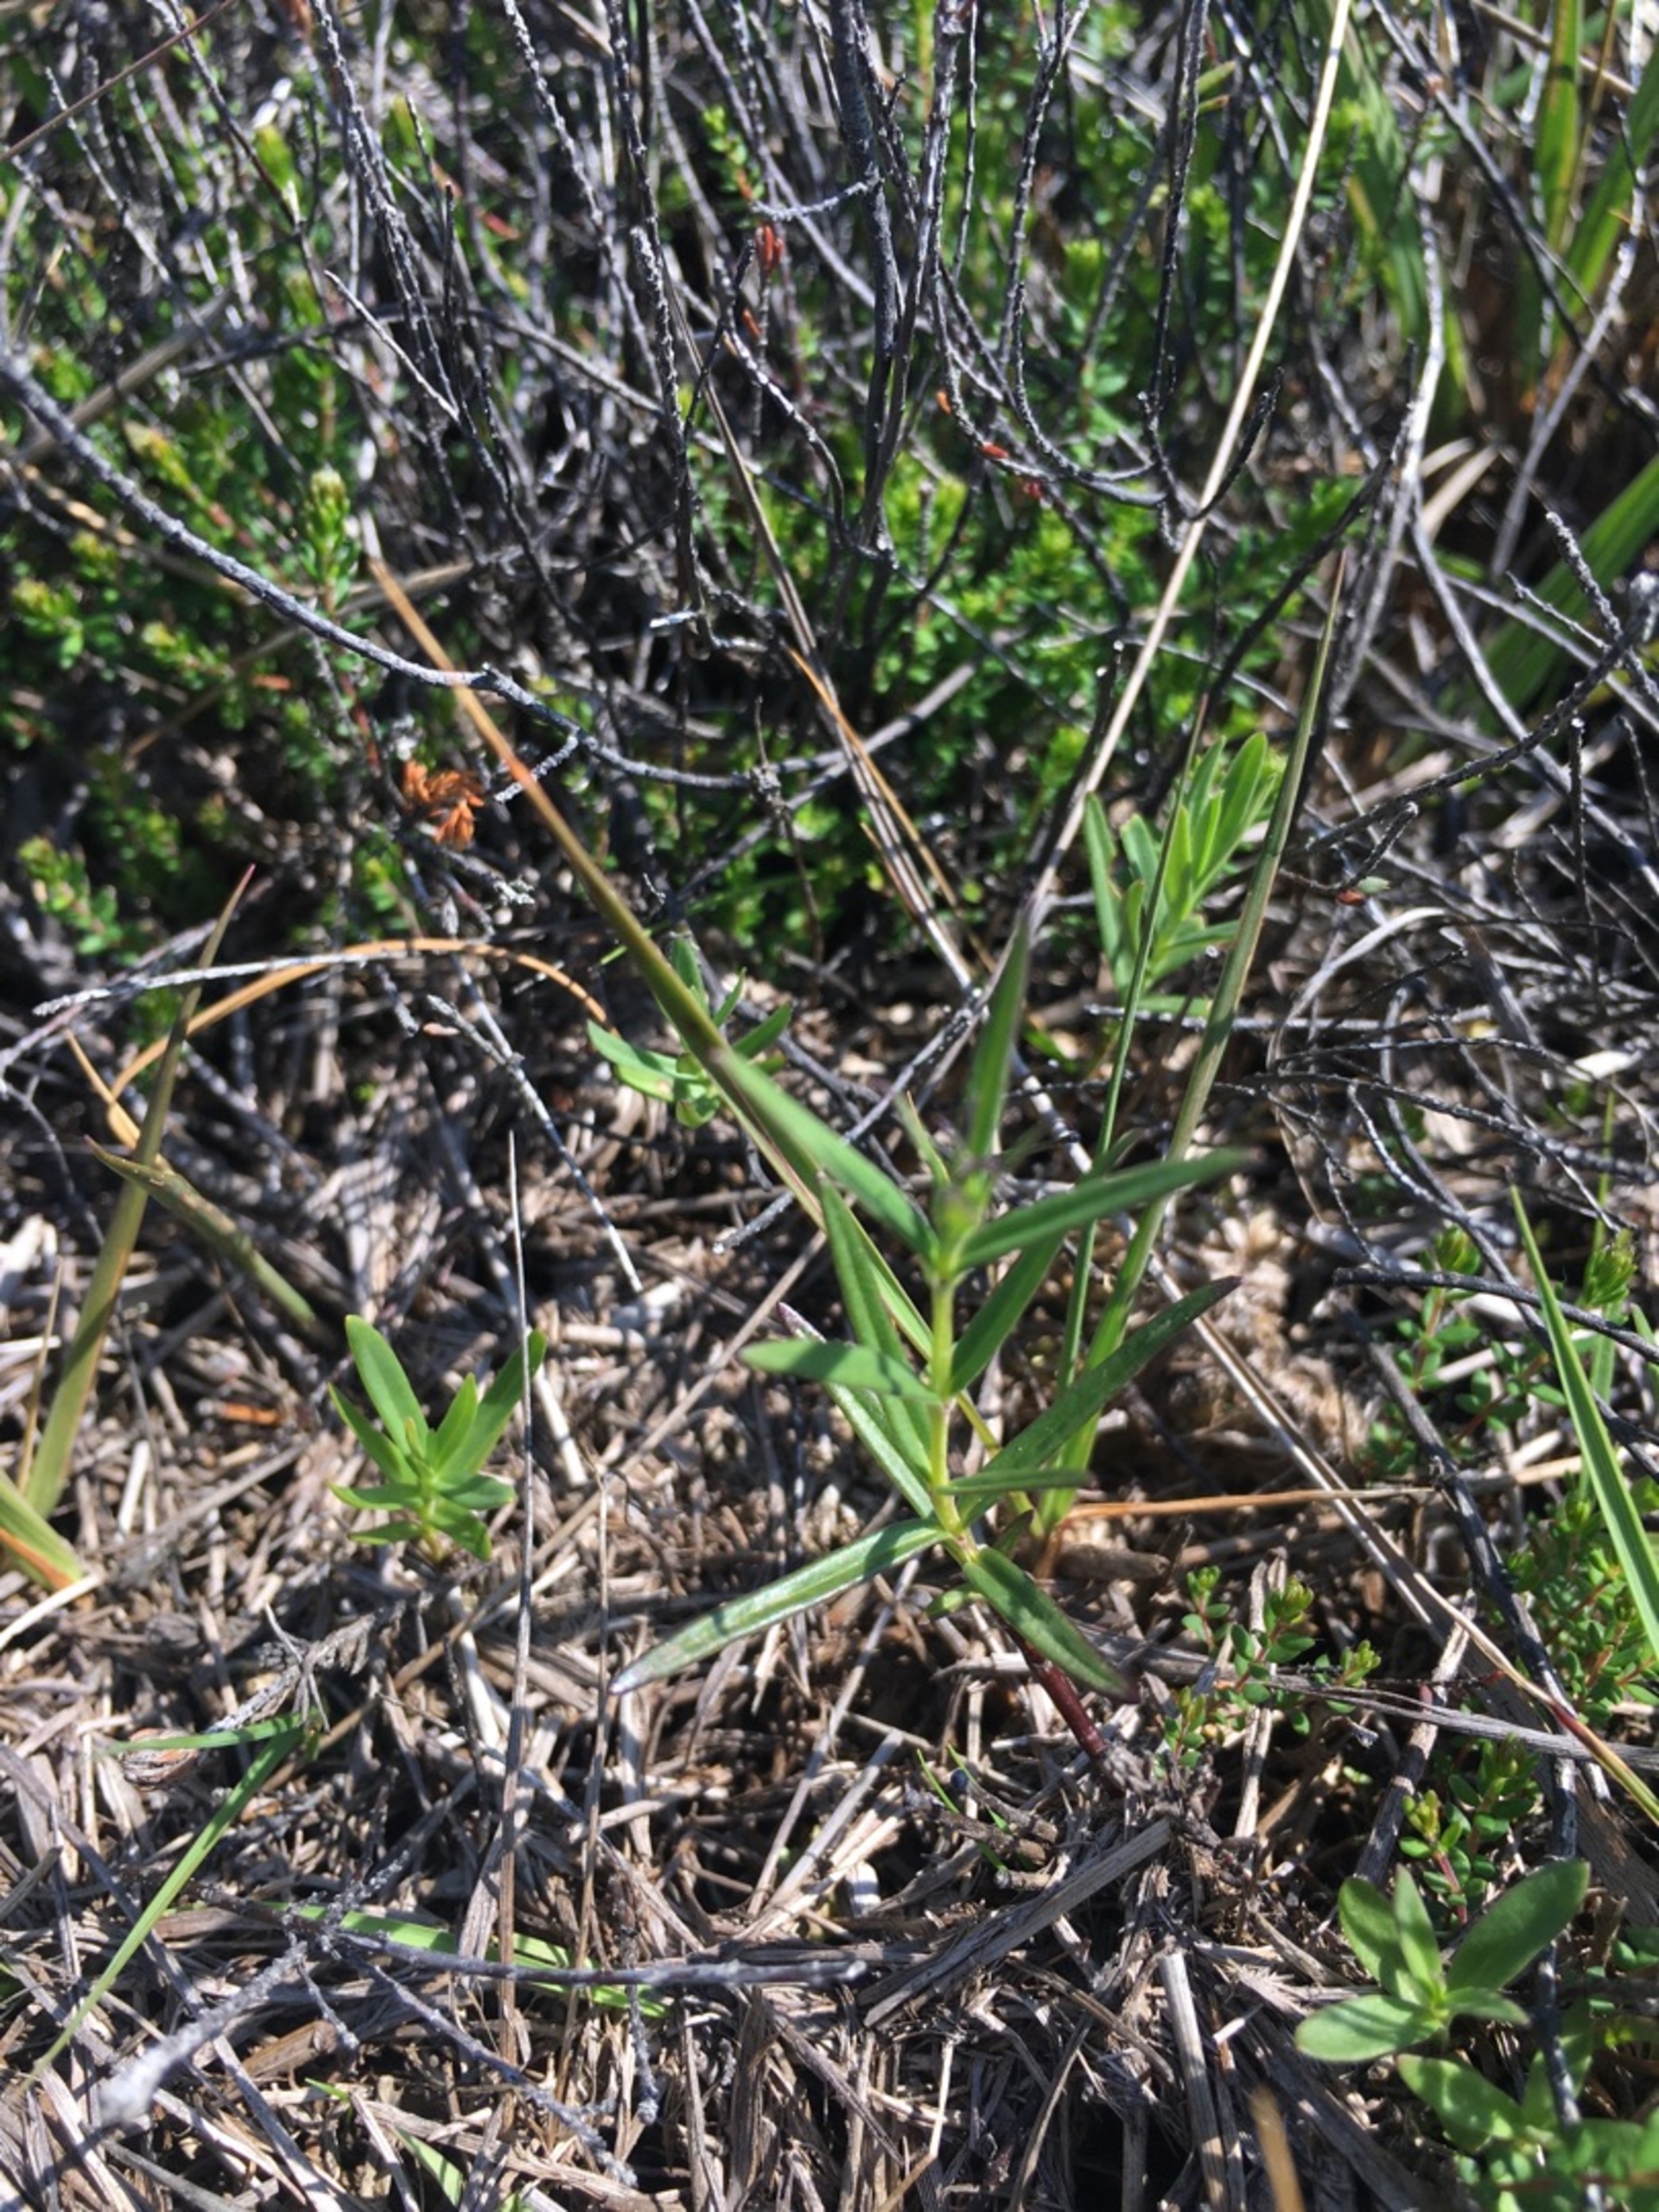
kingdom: Plantae
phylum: Tracheophyta
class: Magnoliopsida
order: Gentianales
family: Gentianaceae
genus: Gentiana
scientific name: Gentiana pneumonanthe
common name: Klokke-ensian
